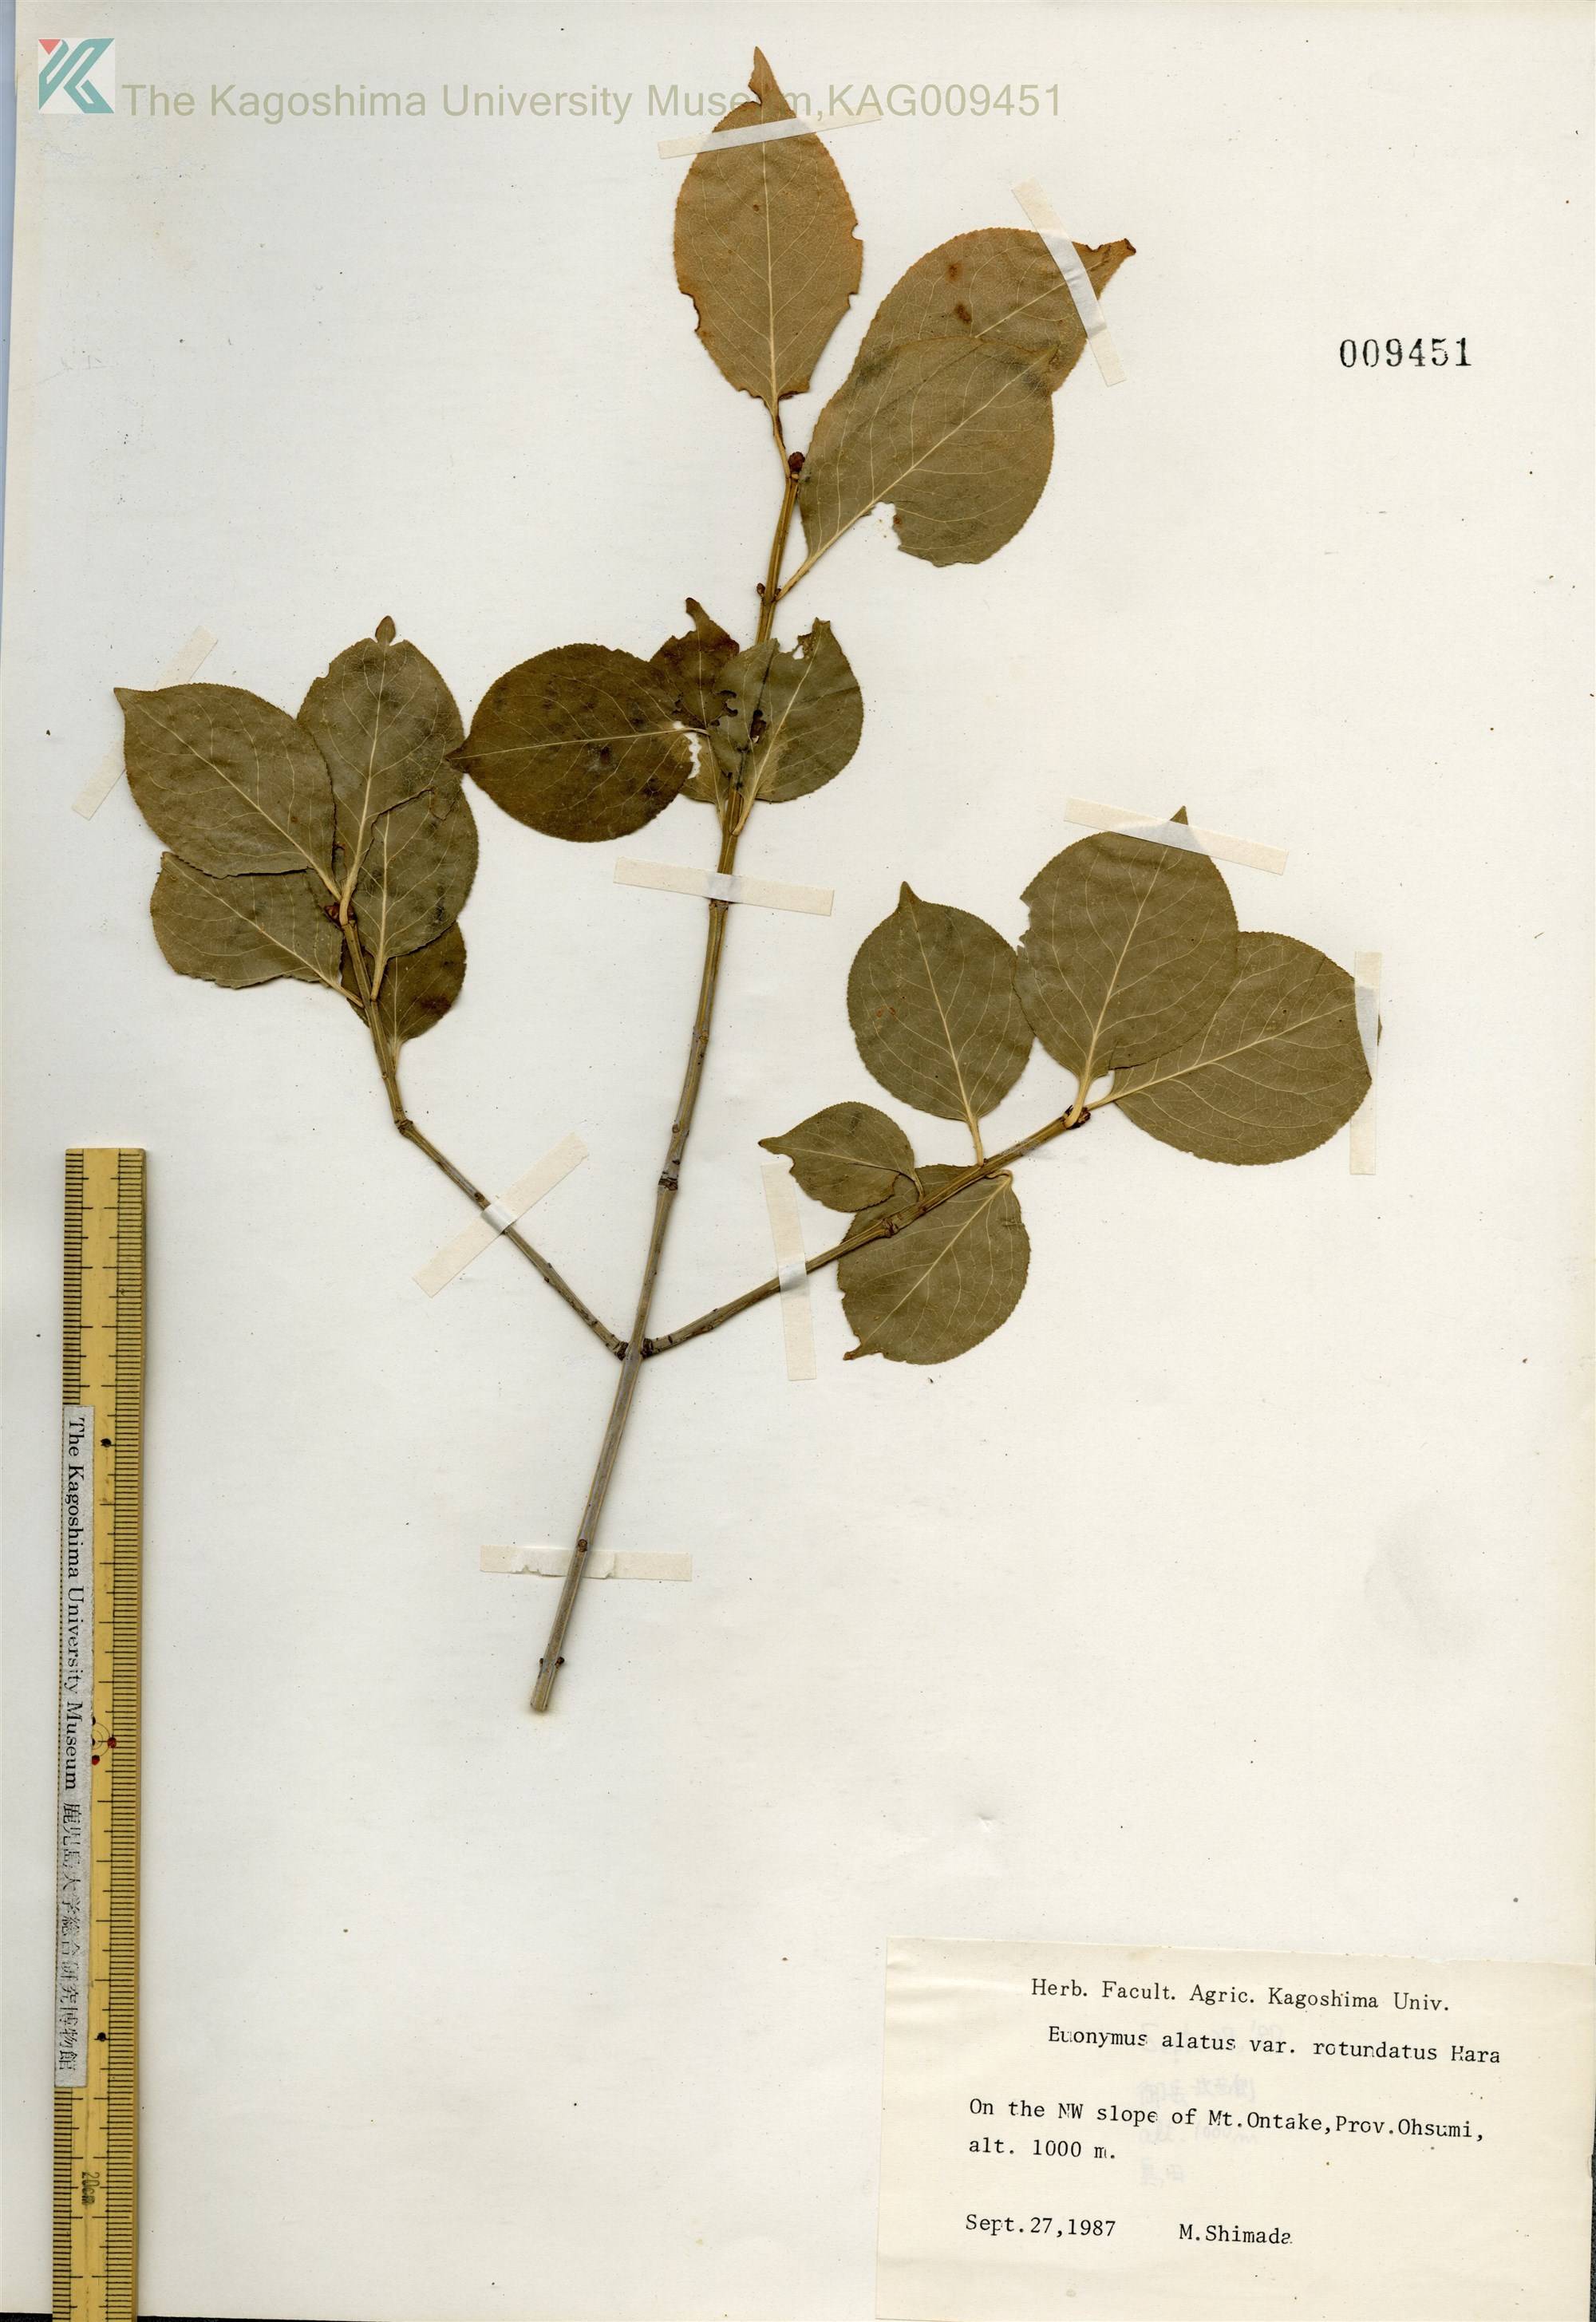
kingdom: Plantae
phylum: Tracheophyta
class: Magnoliopsida
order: Celastrales
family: Celastraceae
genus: Euonymus
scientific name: Euonymus alatus
